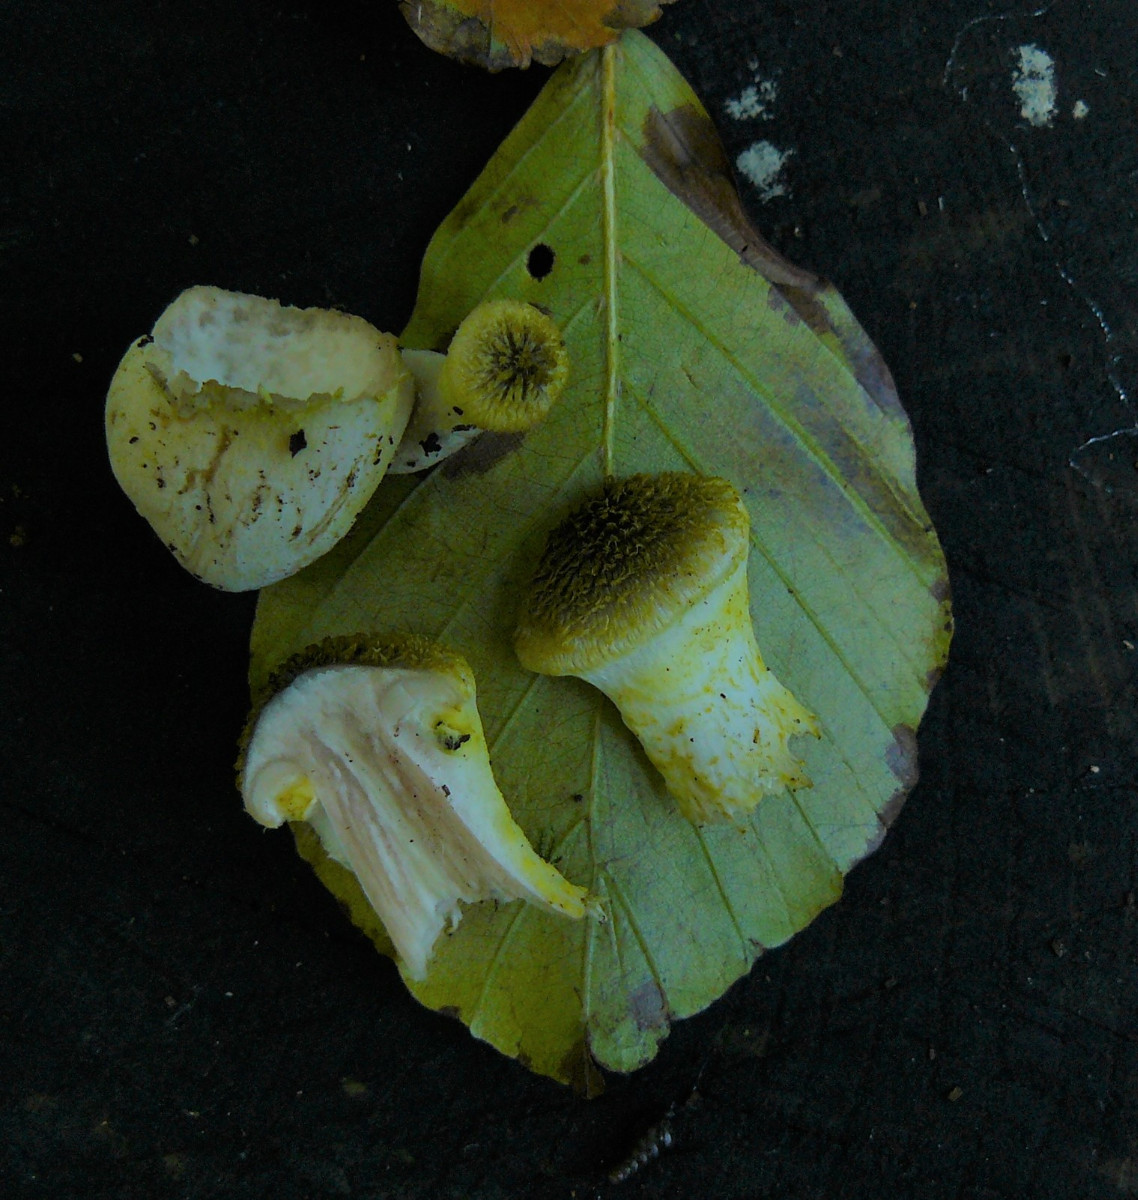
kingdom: Fungi
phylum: Basidiomycota
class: Agaricomycetes
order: Agaricales
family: Physalacriaceae
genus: Armillaria
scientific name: Armillaria lutea
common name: køllestokket honningsvamp
